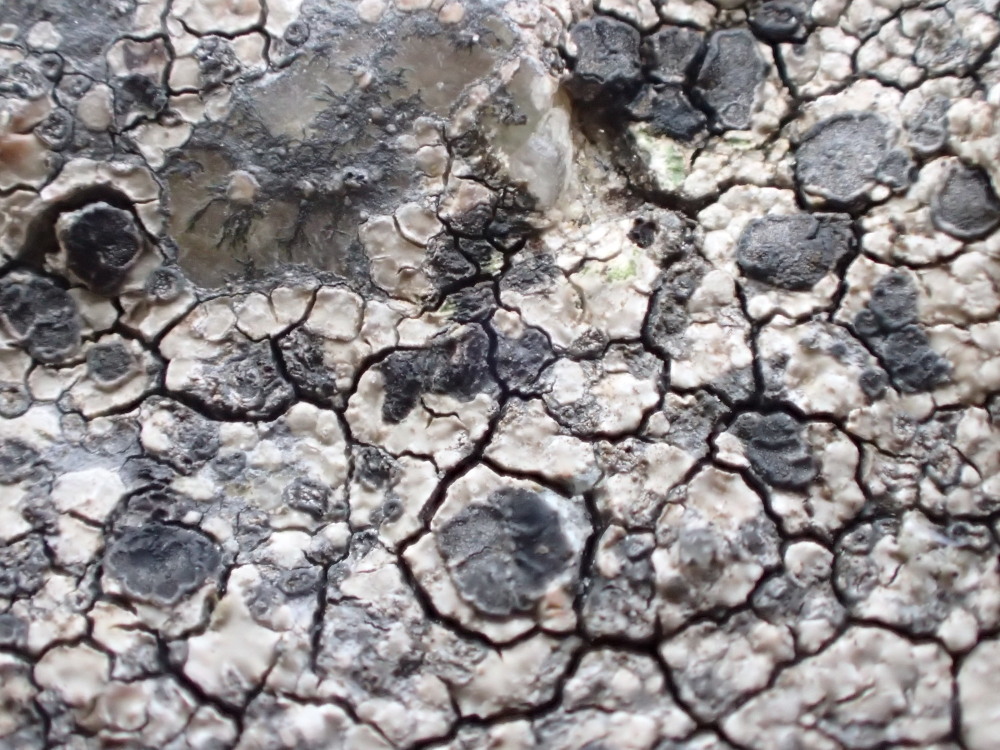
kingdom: Fungi
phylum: Ascomycota
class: Lecanoromycetes
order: Lecideales
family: Lecideaceae
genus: Lecidea
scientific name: Lecidea fuscoatra
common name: rudret skivelav
